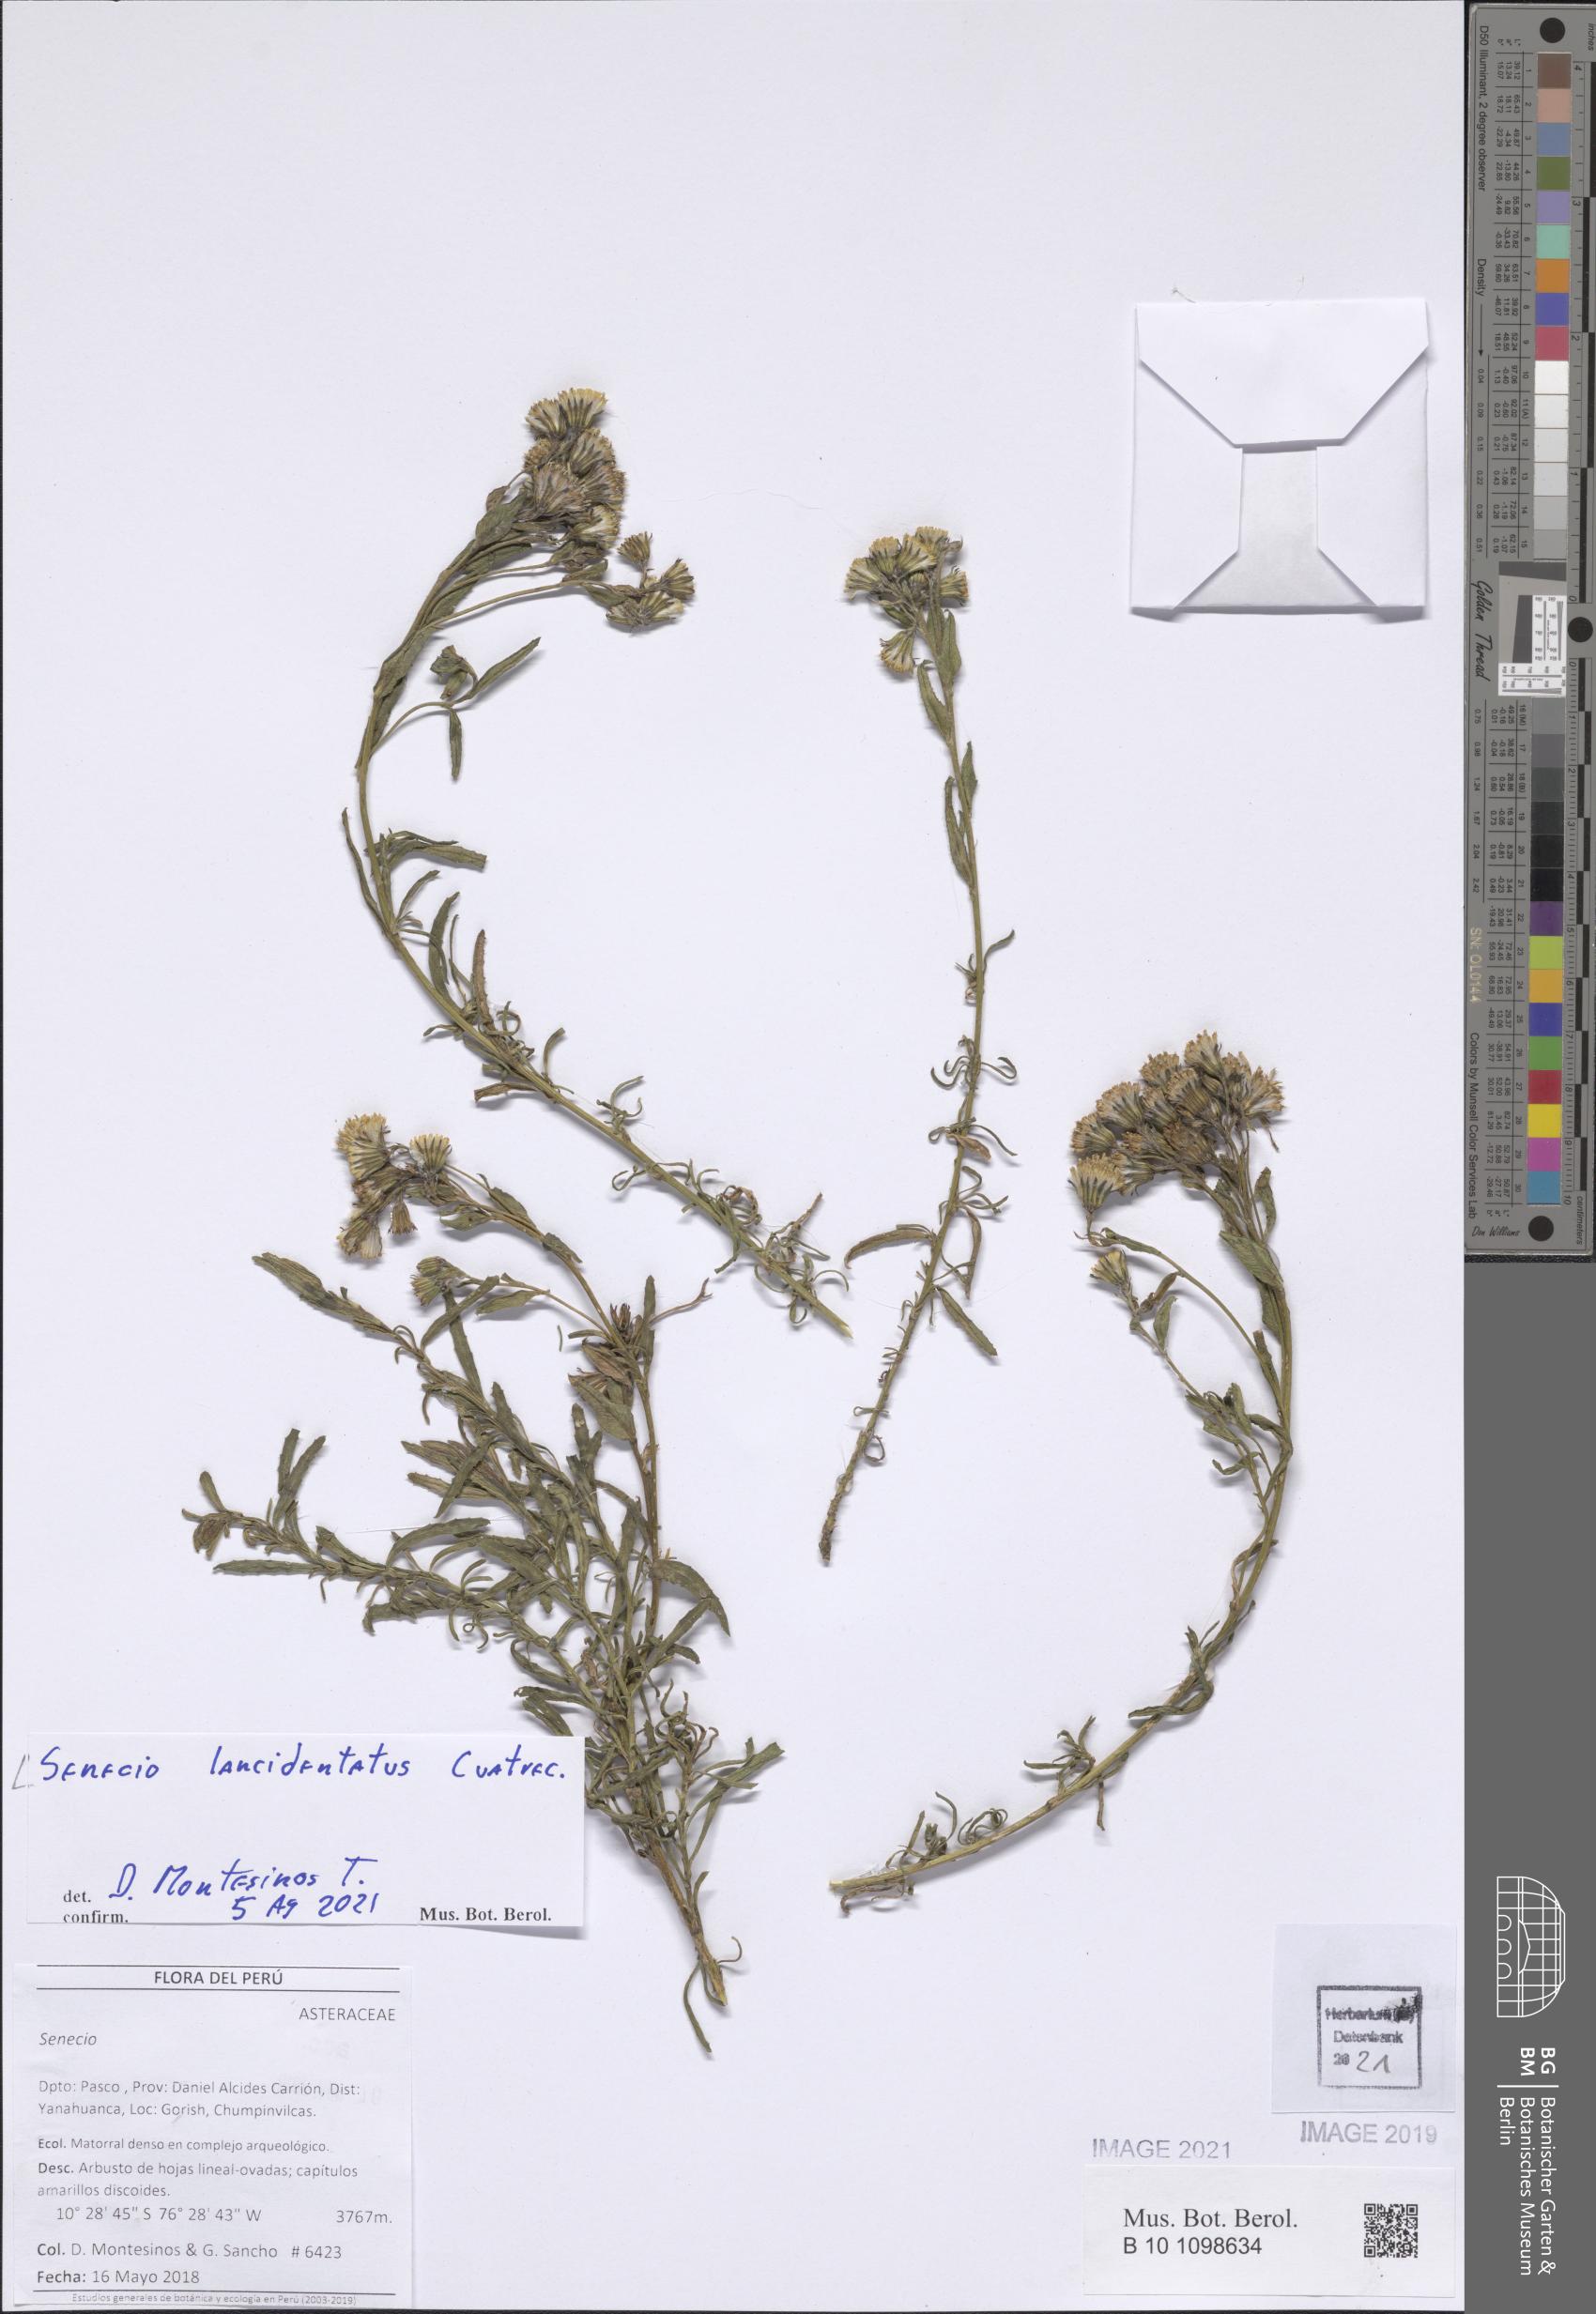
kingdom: Plantae
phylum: Tracheophyta
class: Magnoliopsida
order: Asterales
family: Asteraceae
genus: Senecio
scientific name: Senecio lancidentatus
